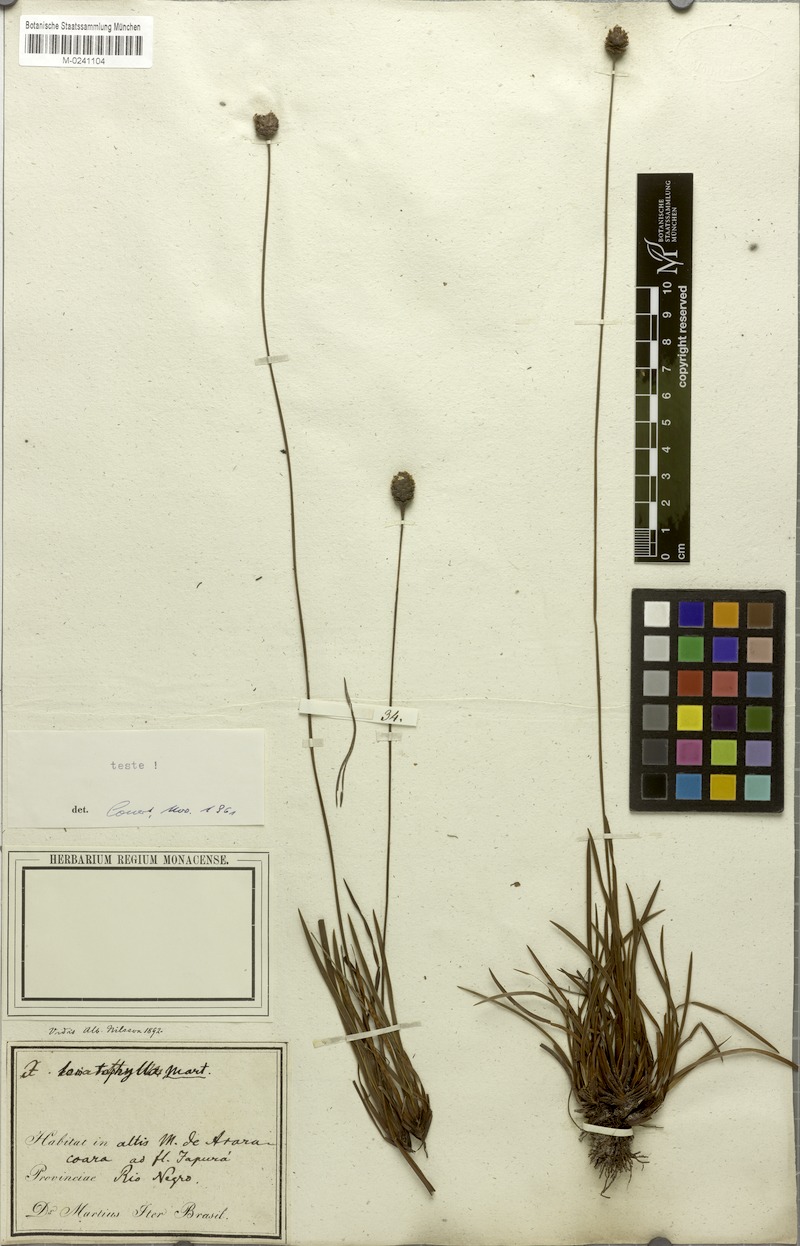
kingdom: Plantae
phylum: Tracheophyta
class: Liliopsida
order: Poales
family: Xyridaceae
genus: Xyris
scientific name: Xyris lomatophylla
